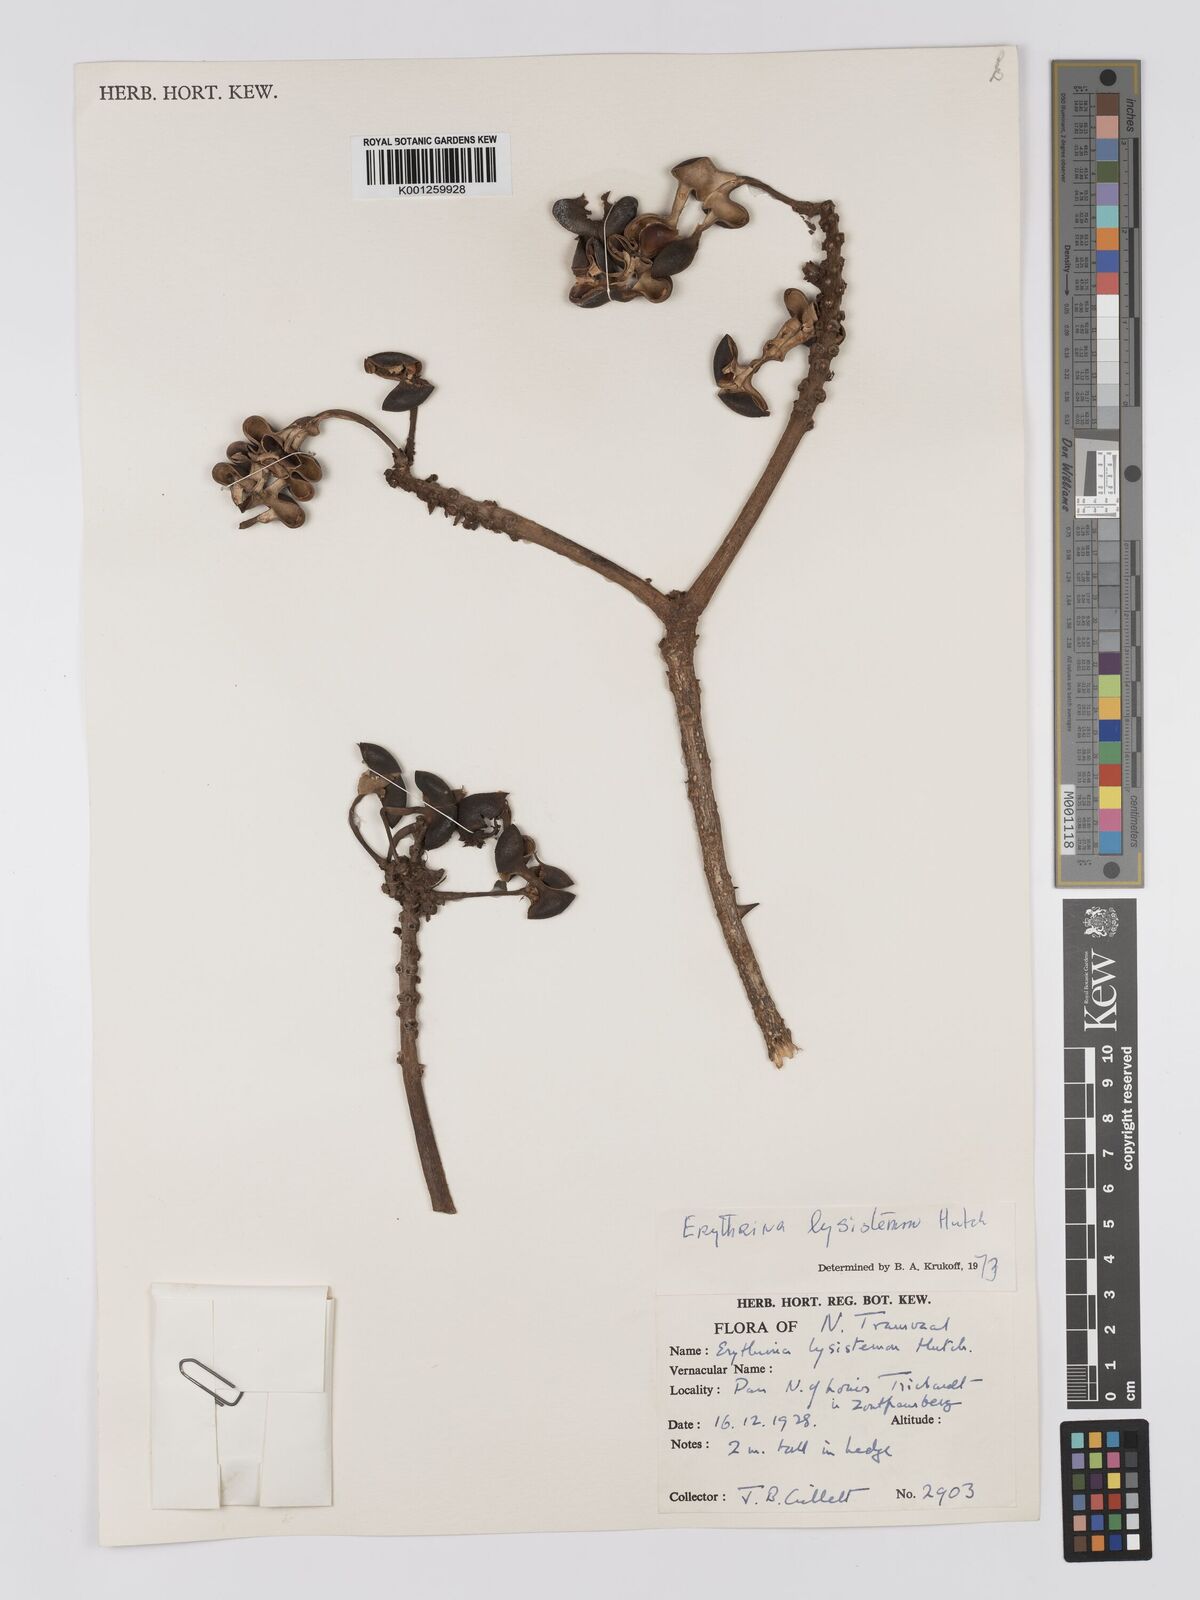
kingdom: Plantae
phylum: Tracheophyta
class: Magnoliopsida
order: Fabales
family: Fabaceae
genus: Erythrina
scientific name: Erythrina lysistemon
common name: Common coral tree
